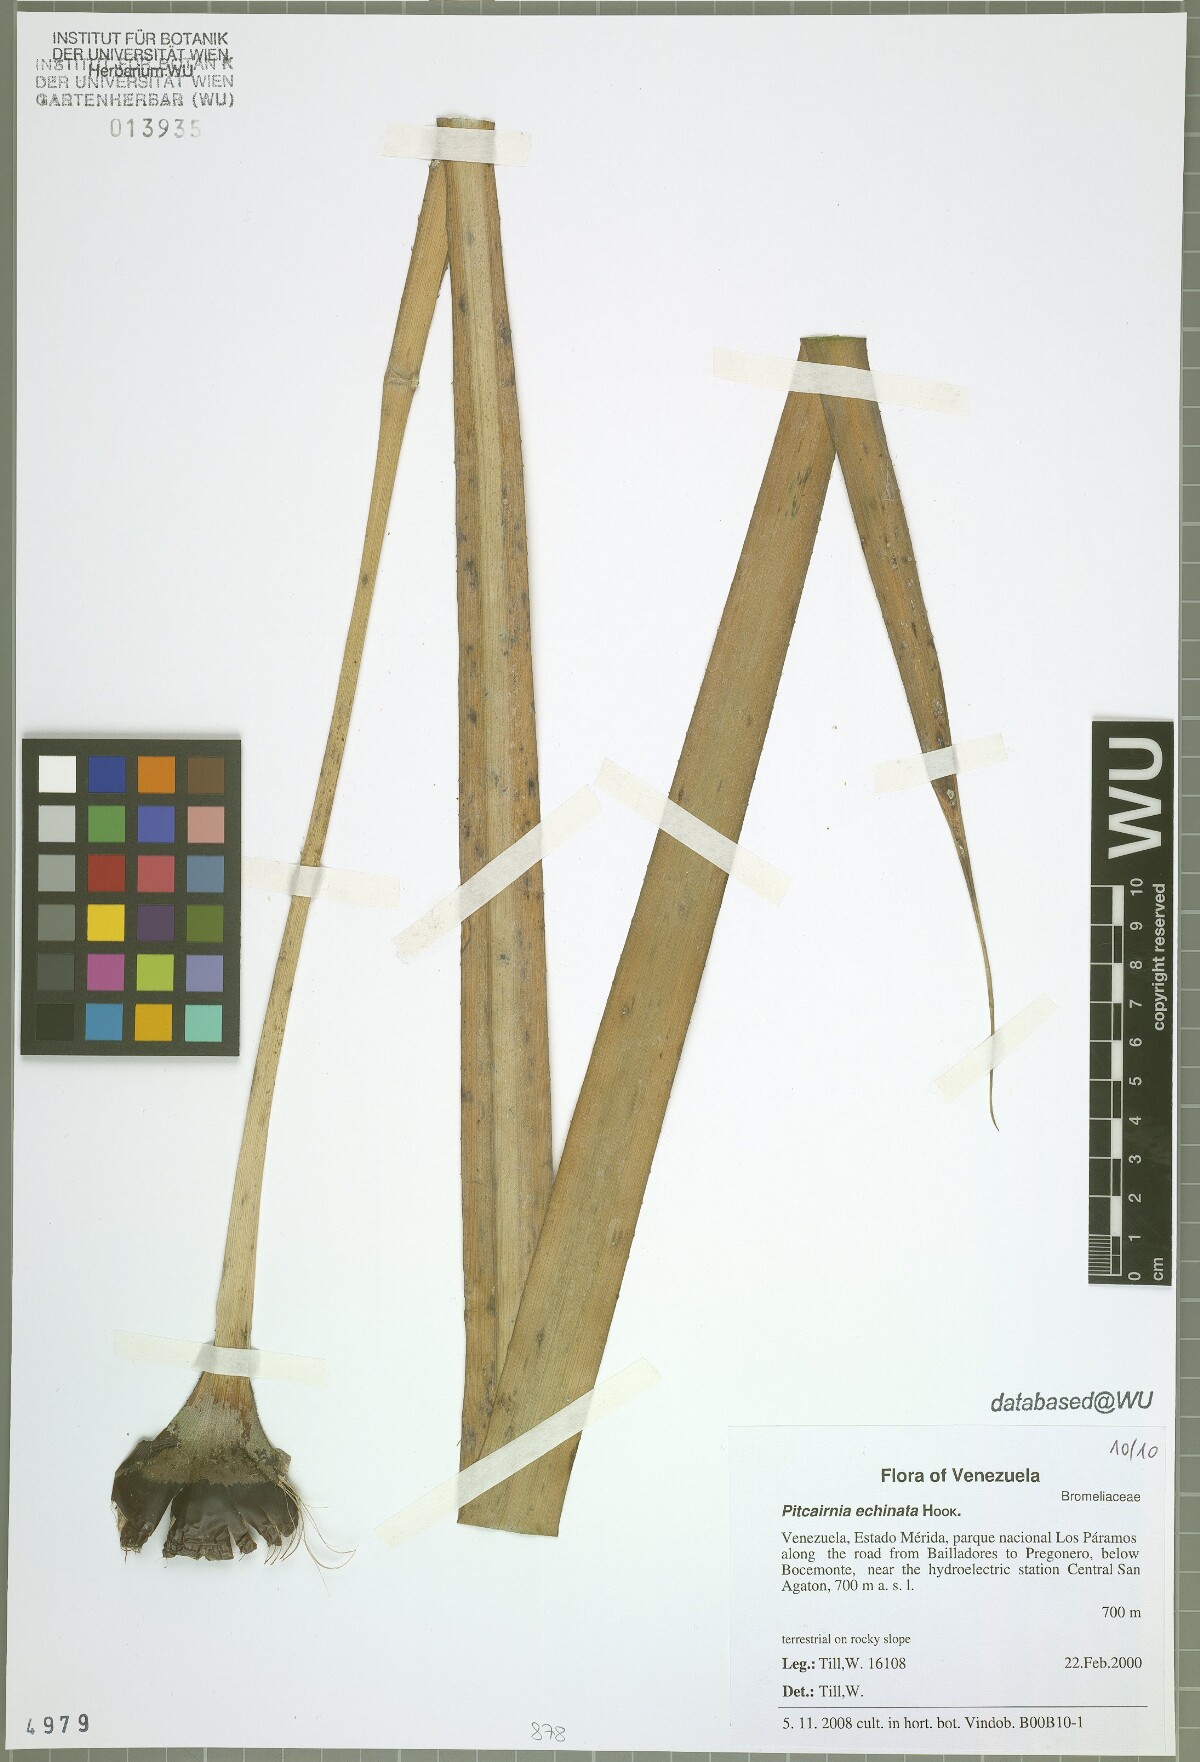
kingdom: Plantae
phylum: Tracheophyta
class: Liliopsida
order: Poales
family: Bromeliaceae
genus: Pitcairnia
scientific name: Pitcairnia echinata
